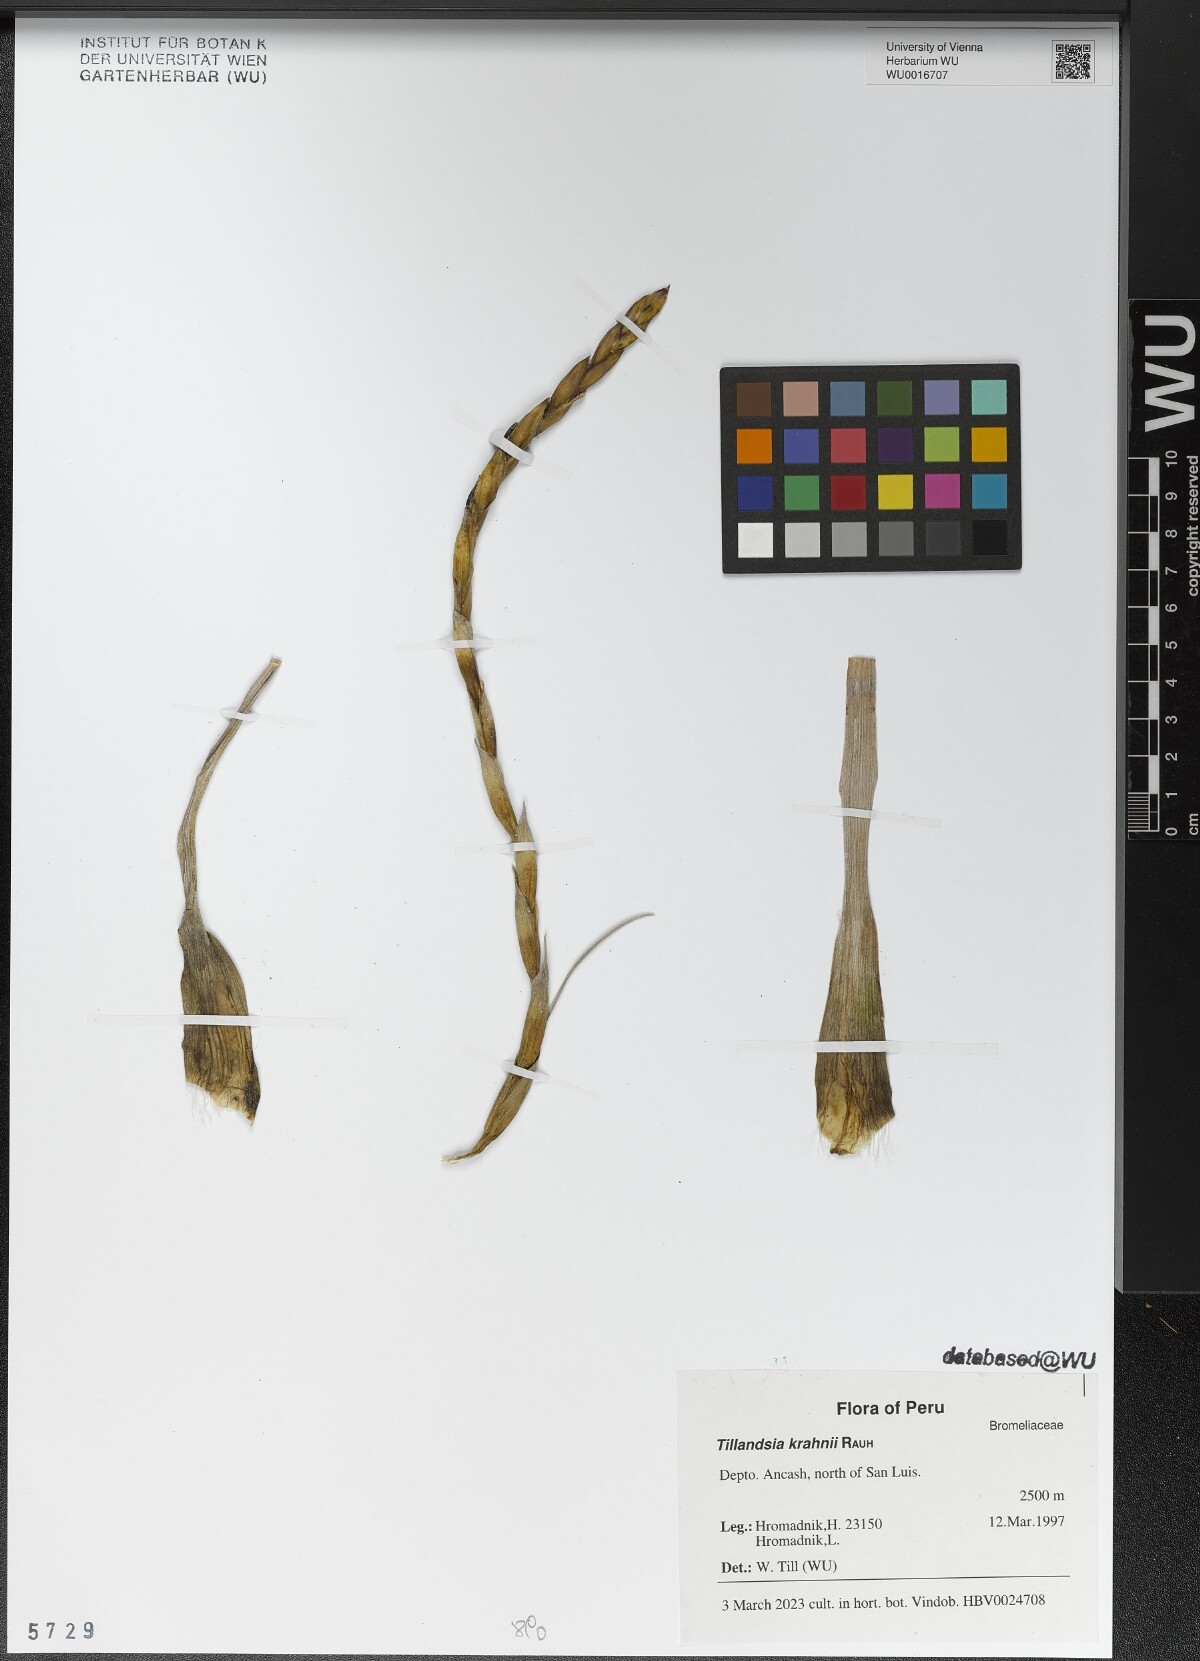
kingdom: Plantae
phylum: Tracheophyta
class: Liliopsida
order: Poales
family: Bromeliaceae
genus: Tillandsia
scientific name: Tillandsia krahnii
